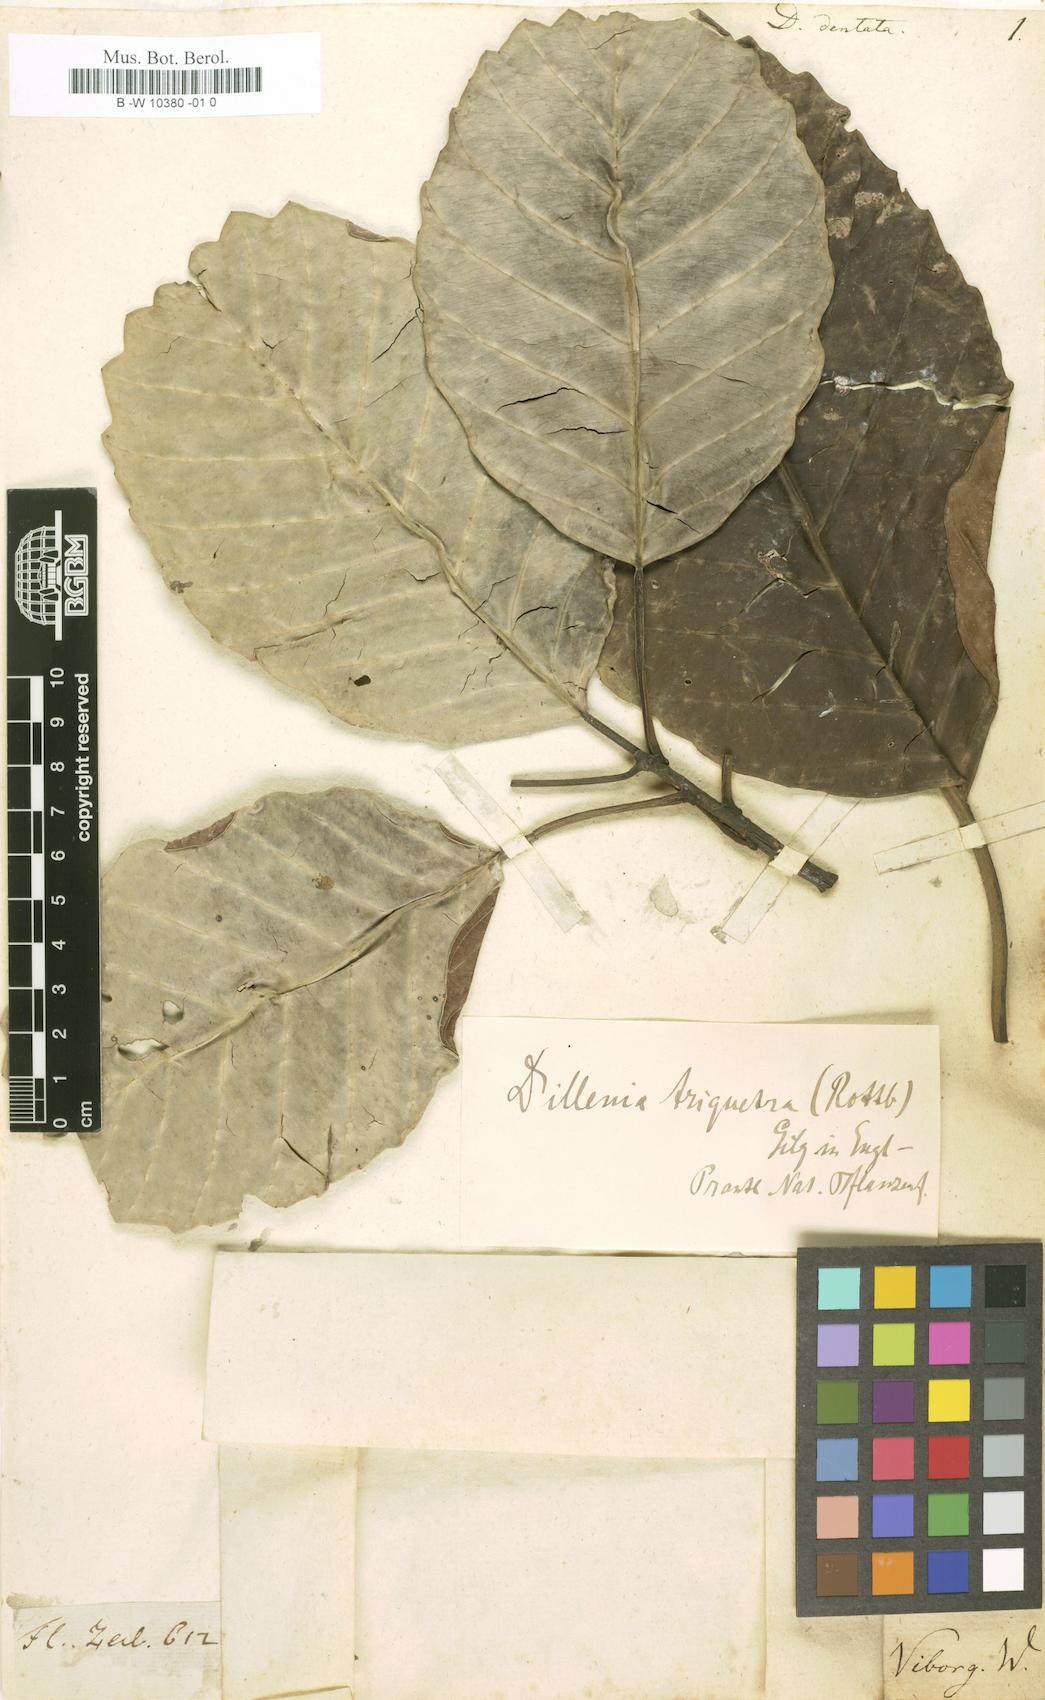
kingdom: Plantae
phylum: Tracheophyta
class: Magnoliopsida
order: Dilleniales
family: Dilleniaceae
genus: Dillenia
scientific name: Dillenia triquetra
